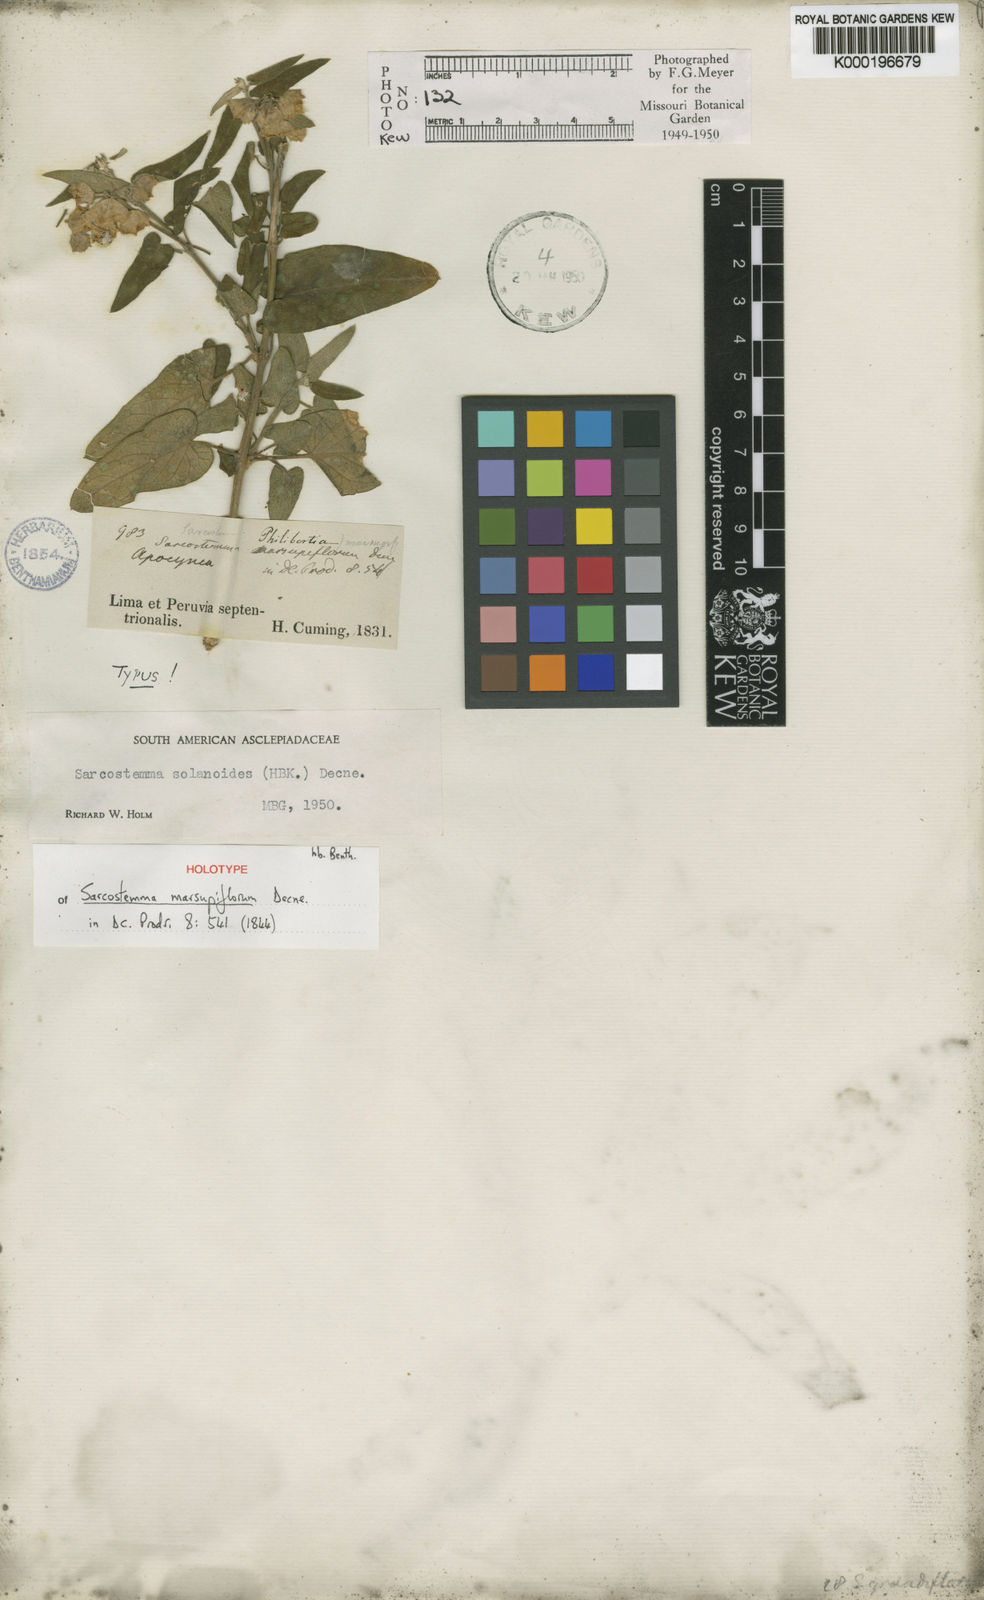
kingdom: Plantae
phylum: Tracheophyta
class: Magnoliopsida
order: Gentianales
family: Apocynaceae
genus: Philibertia
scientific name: Philibertia solanoides
